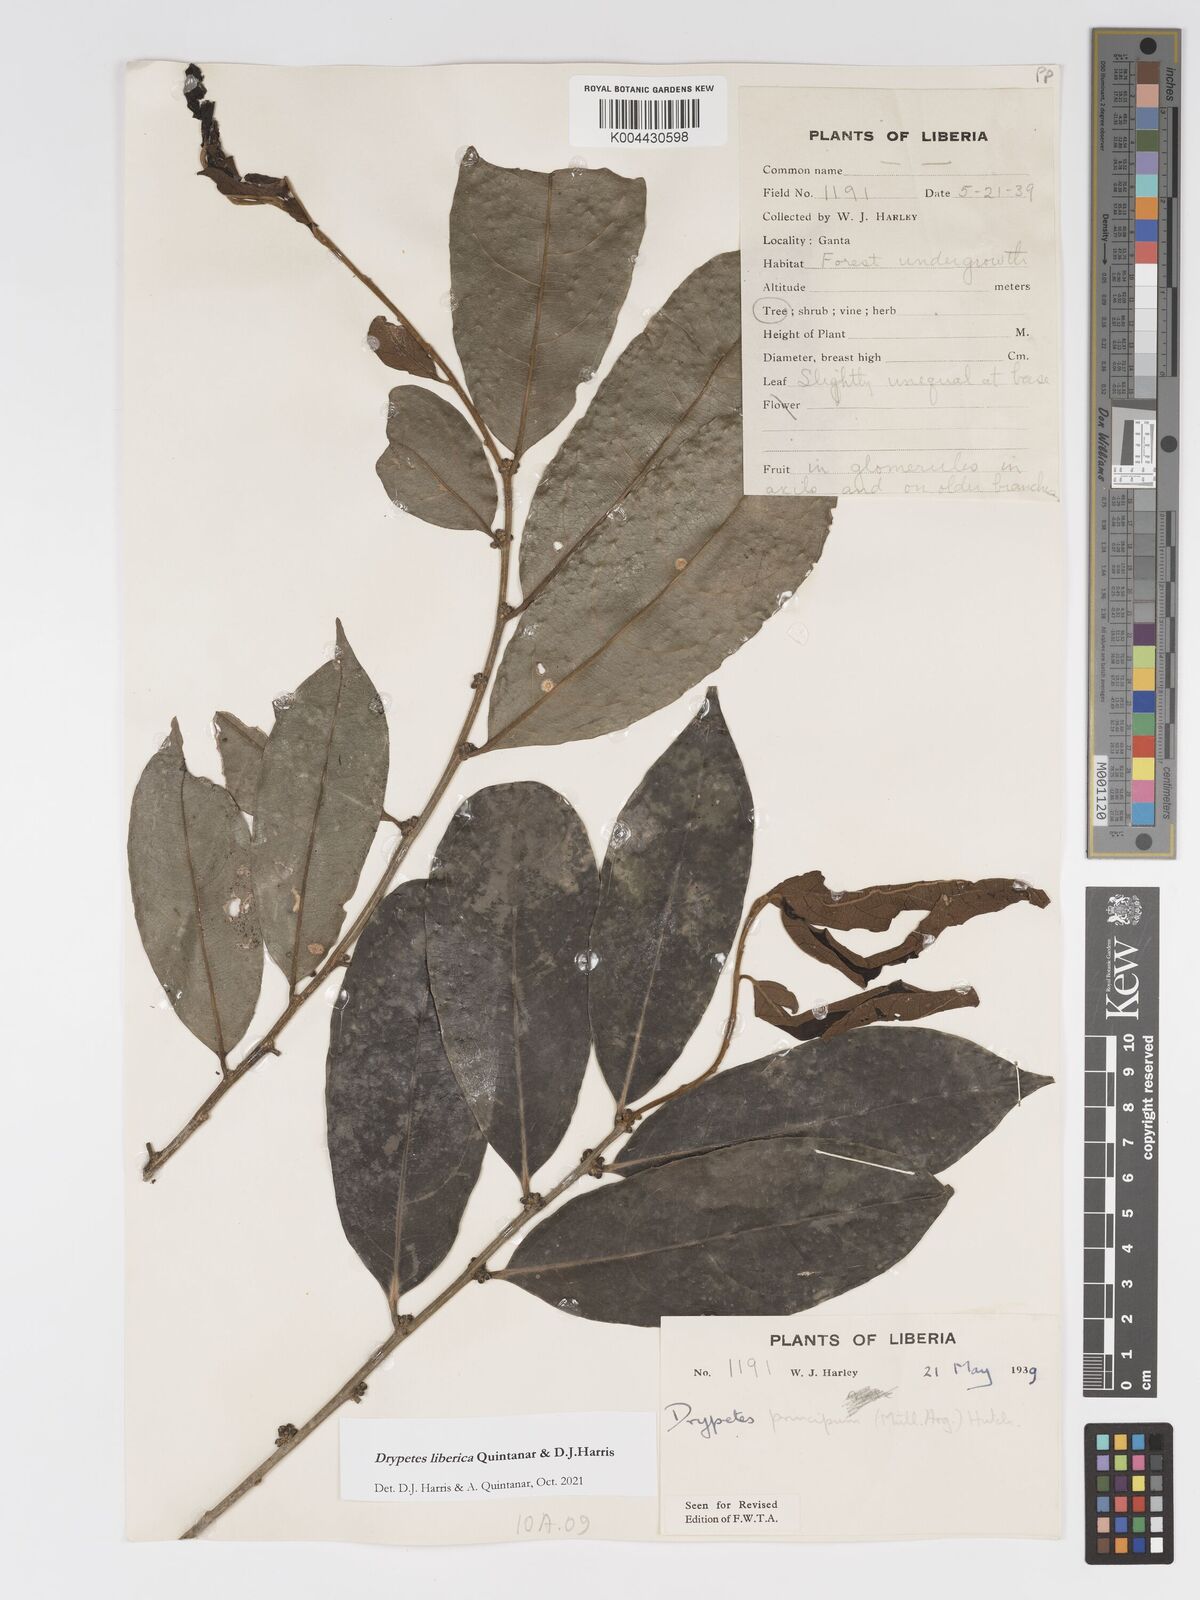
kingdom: Plantae
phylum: Tracheophyta
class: Magnoliopsida
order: Malpighiales
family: Putranjivaceae
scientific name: Putranjivaceae
